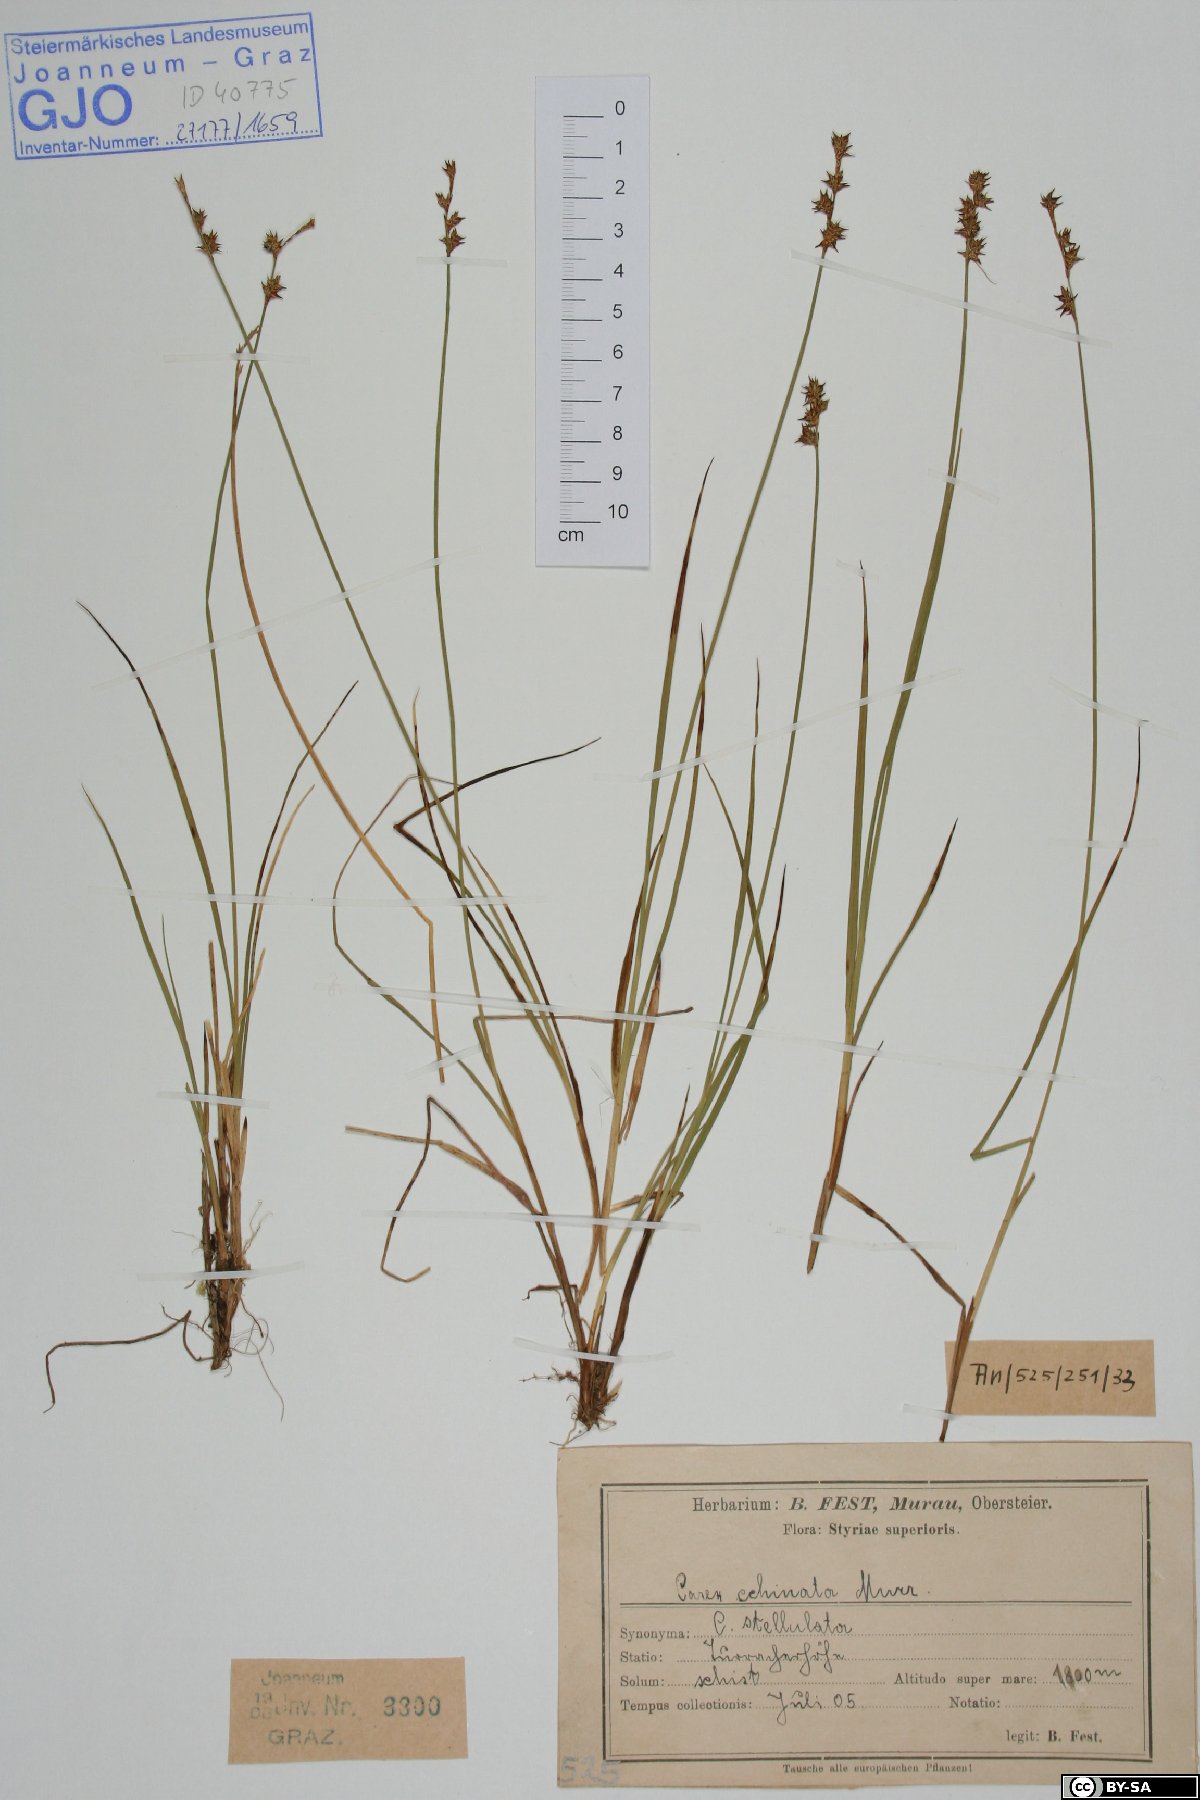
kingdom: Plantae
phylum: Tracheophyta
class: Liliopsida
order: Poales
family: Cyperaceae
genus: Carex
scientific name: Carex echinata
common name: Star sedge
